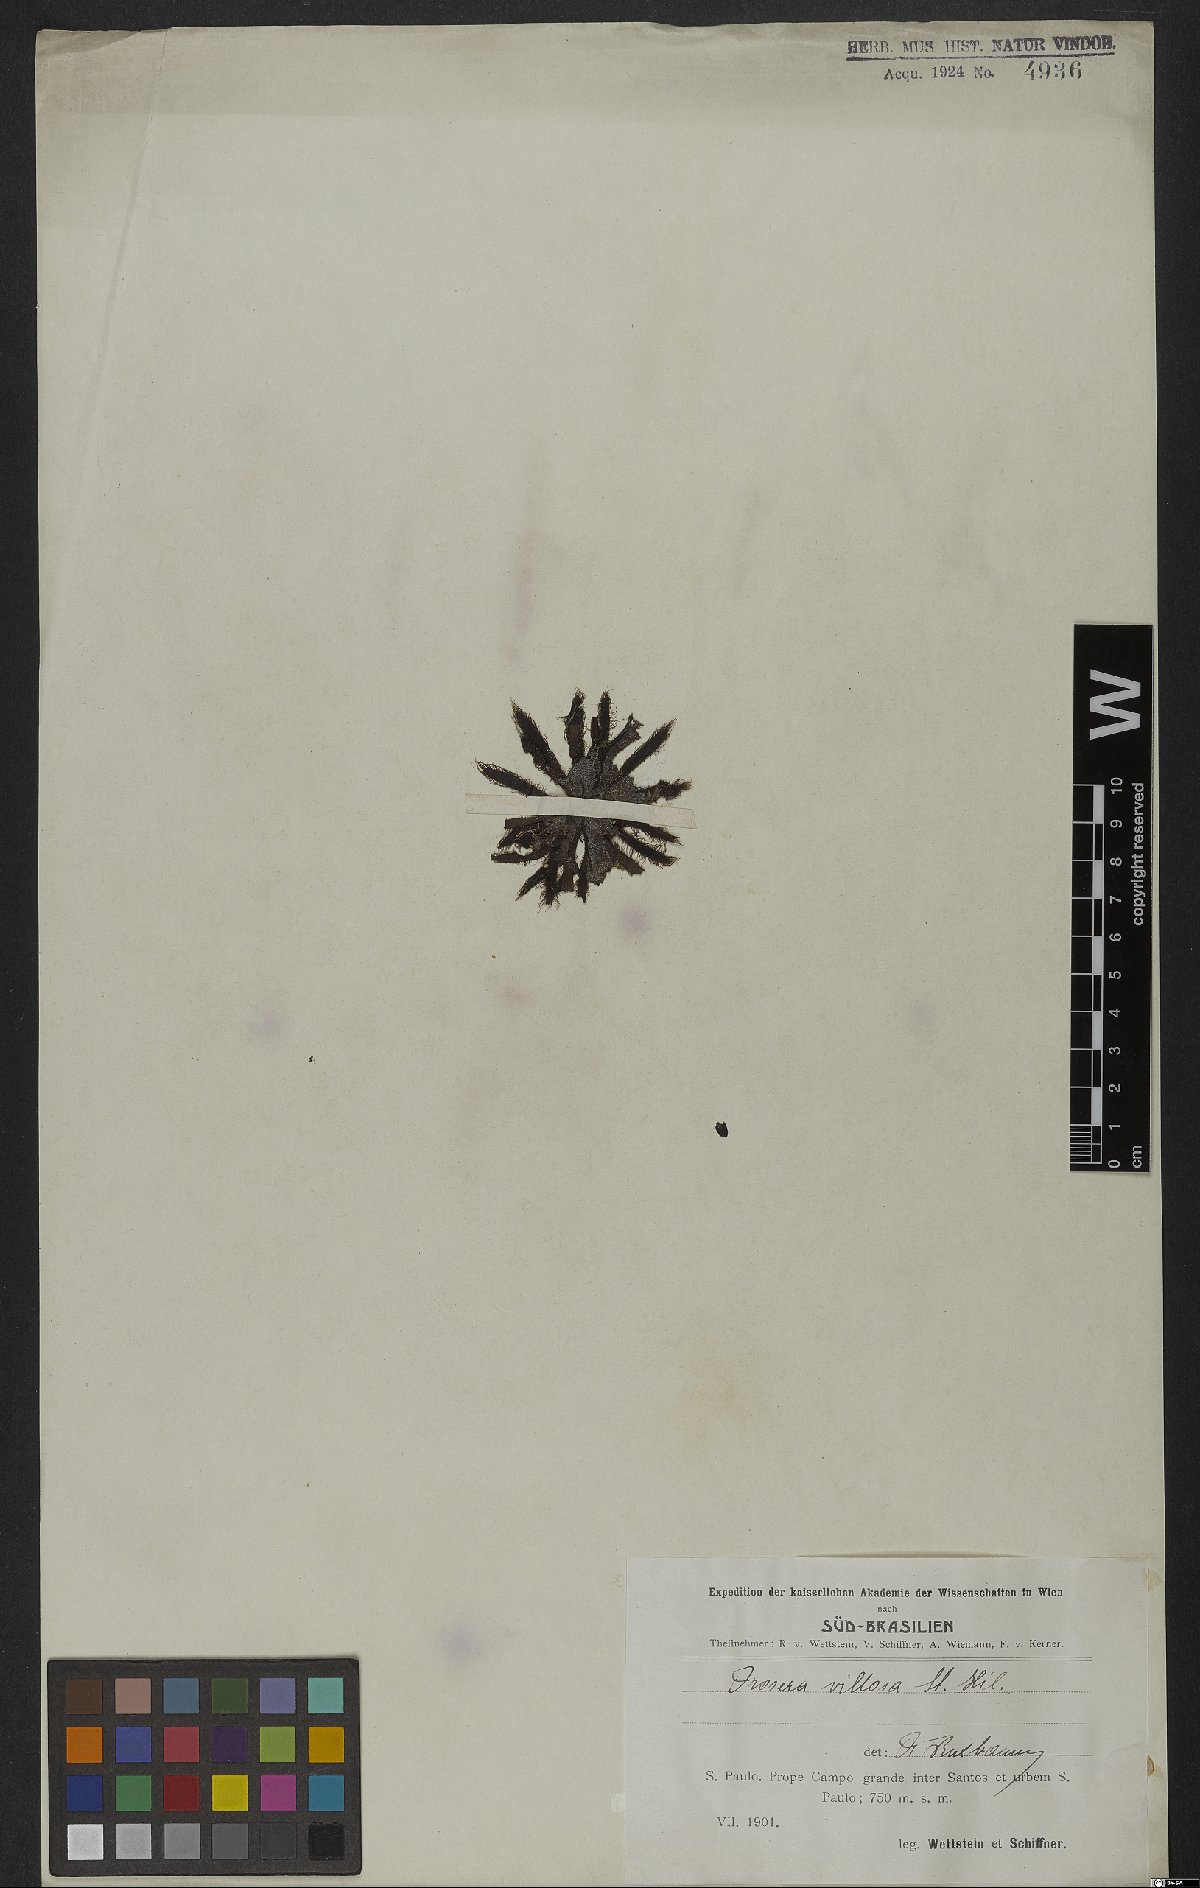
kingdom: Plantae
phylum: Tracheophyta
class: Magnoliopsida
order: Caryophyllales
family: Droseraceae
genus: Drosera
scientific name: Drosera latifolia
